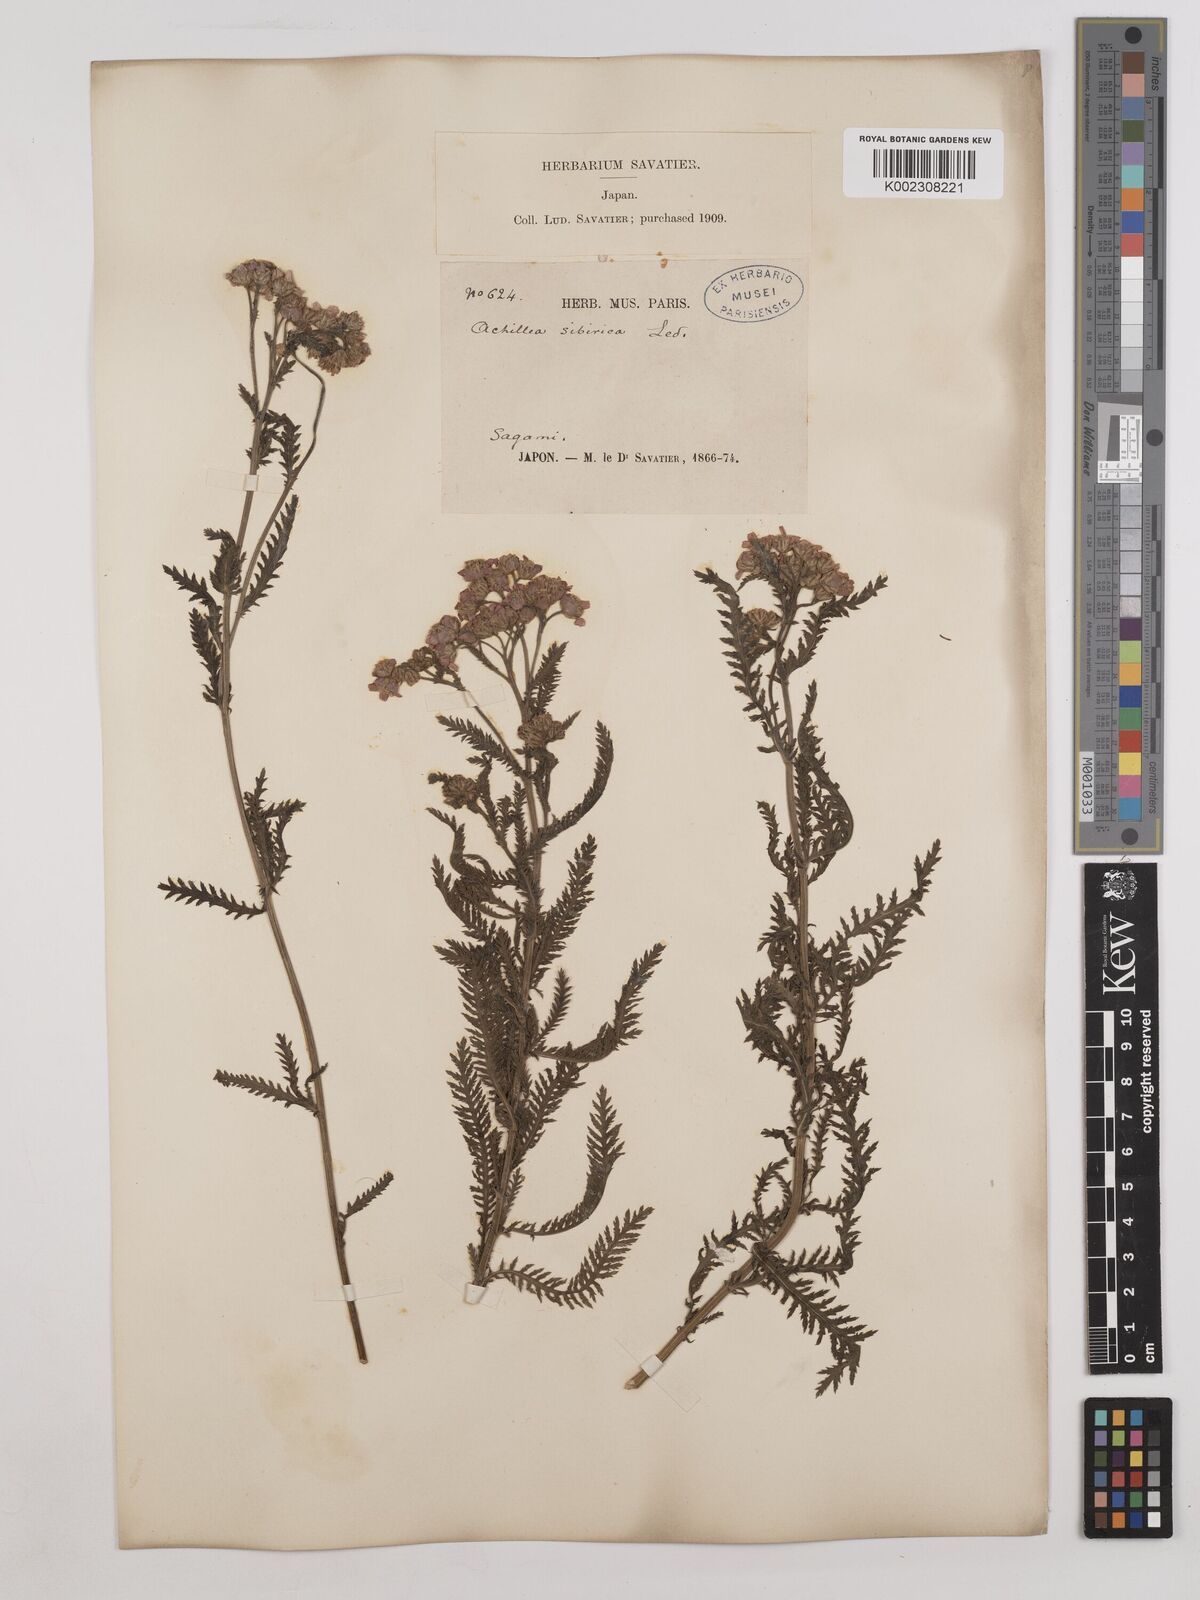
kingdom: Plantae
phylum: Tracheophyta
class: Magnoliopsida
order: Asterales
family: Asteraceae
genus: Achillea
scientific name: Achillea alpina
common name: Siberian yarrow
